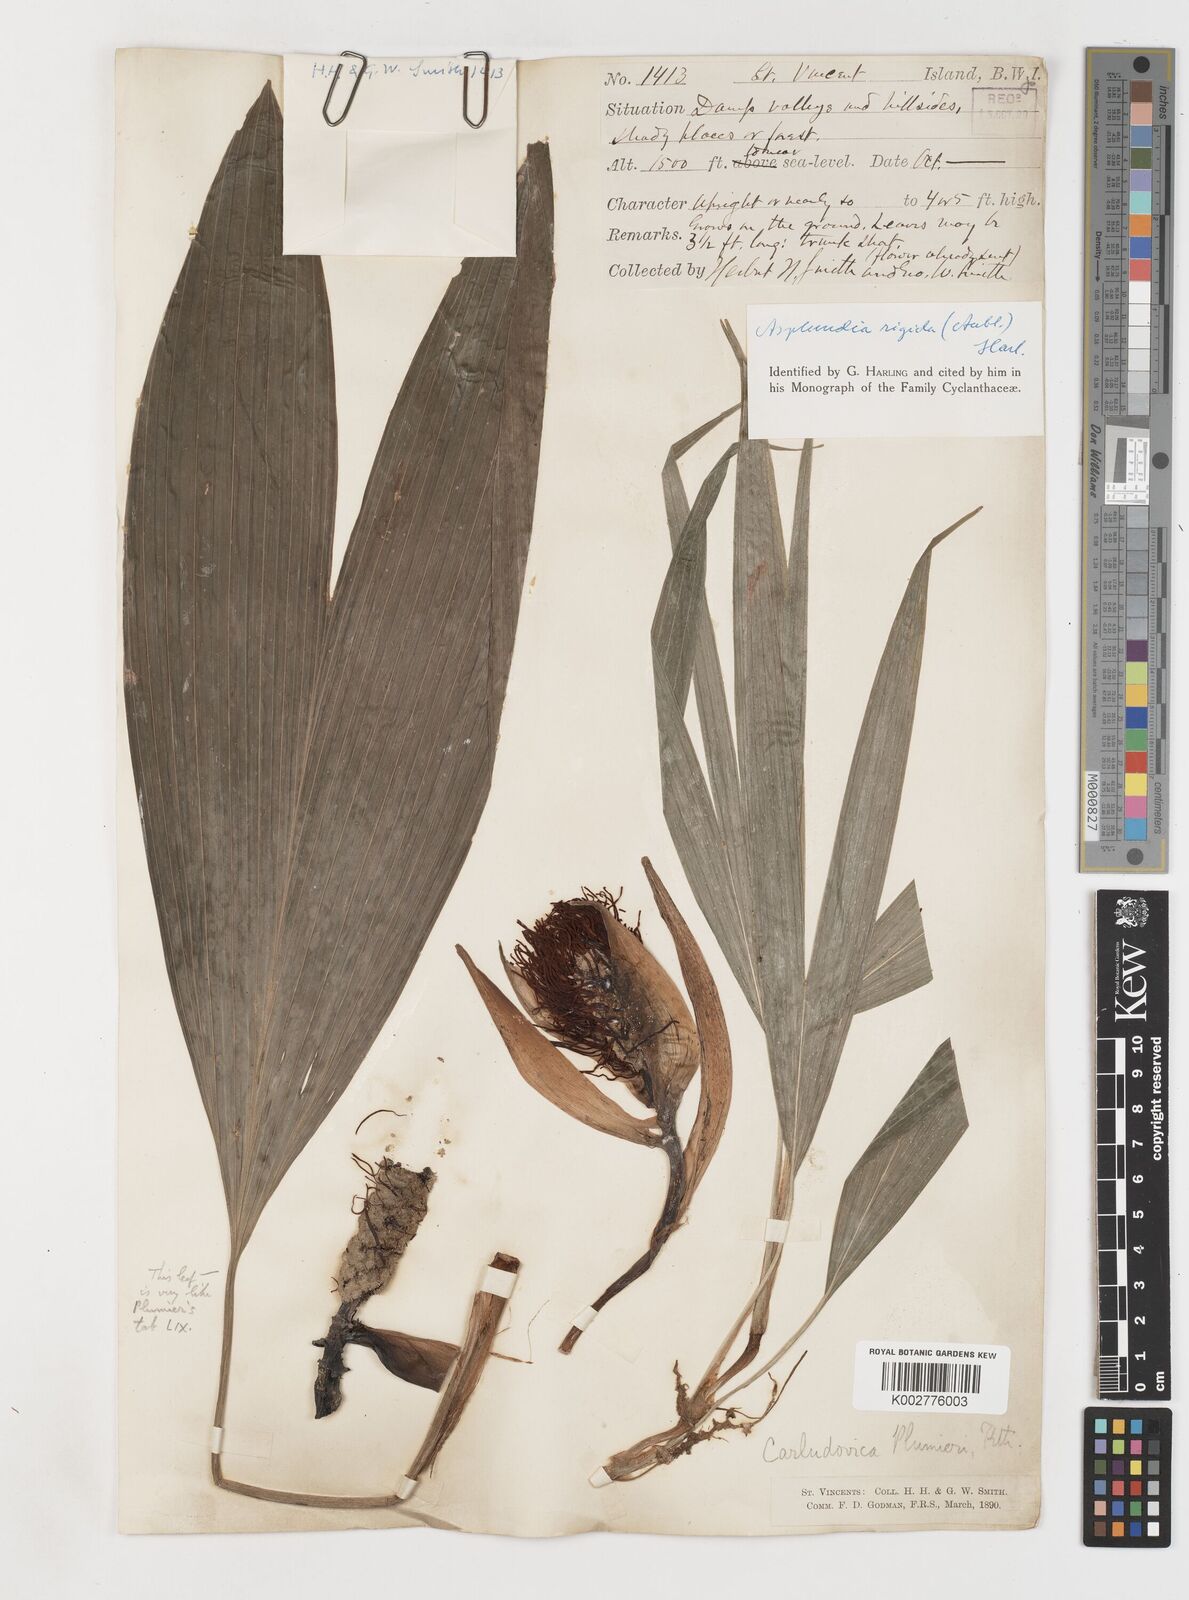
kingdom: Plantae
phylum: Tracheophyta
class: Liliopsida
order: Pandanales
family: Cyclanthaceae
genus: Asplundia
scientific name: Asplundia rigida
